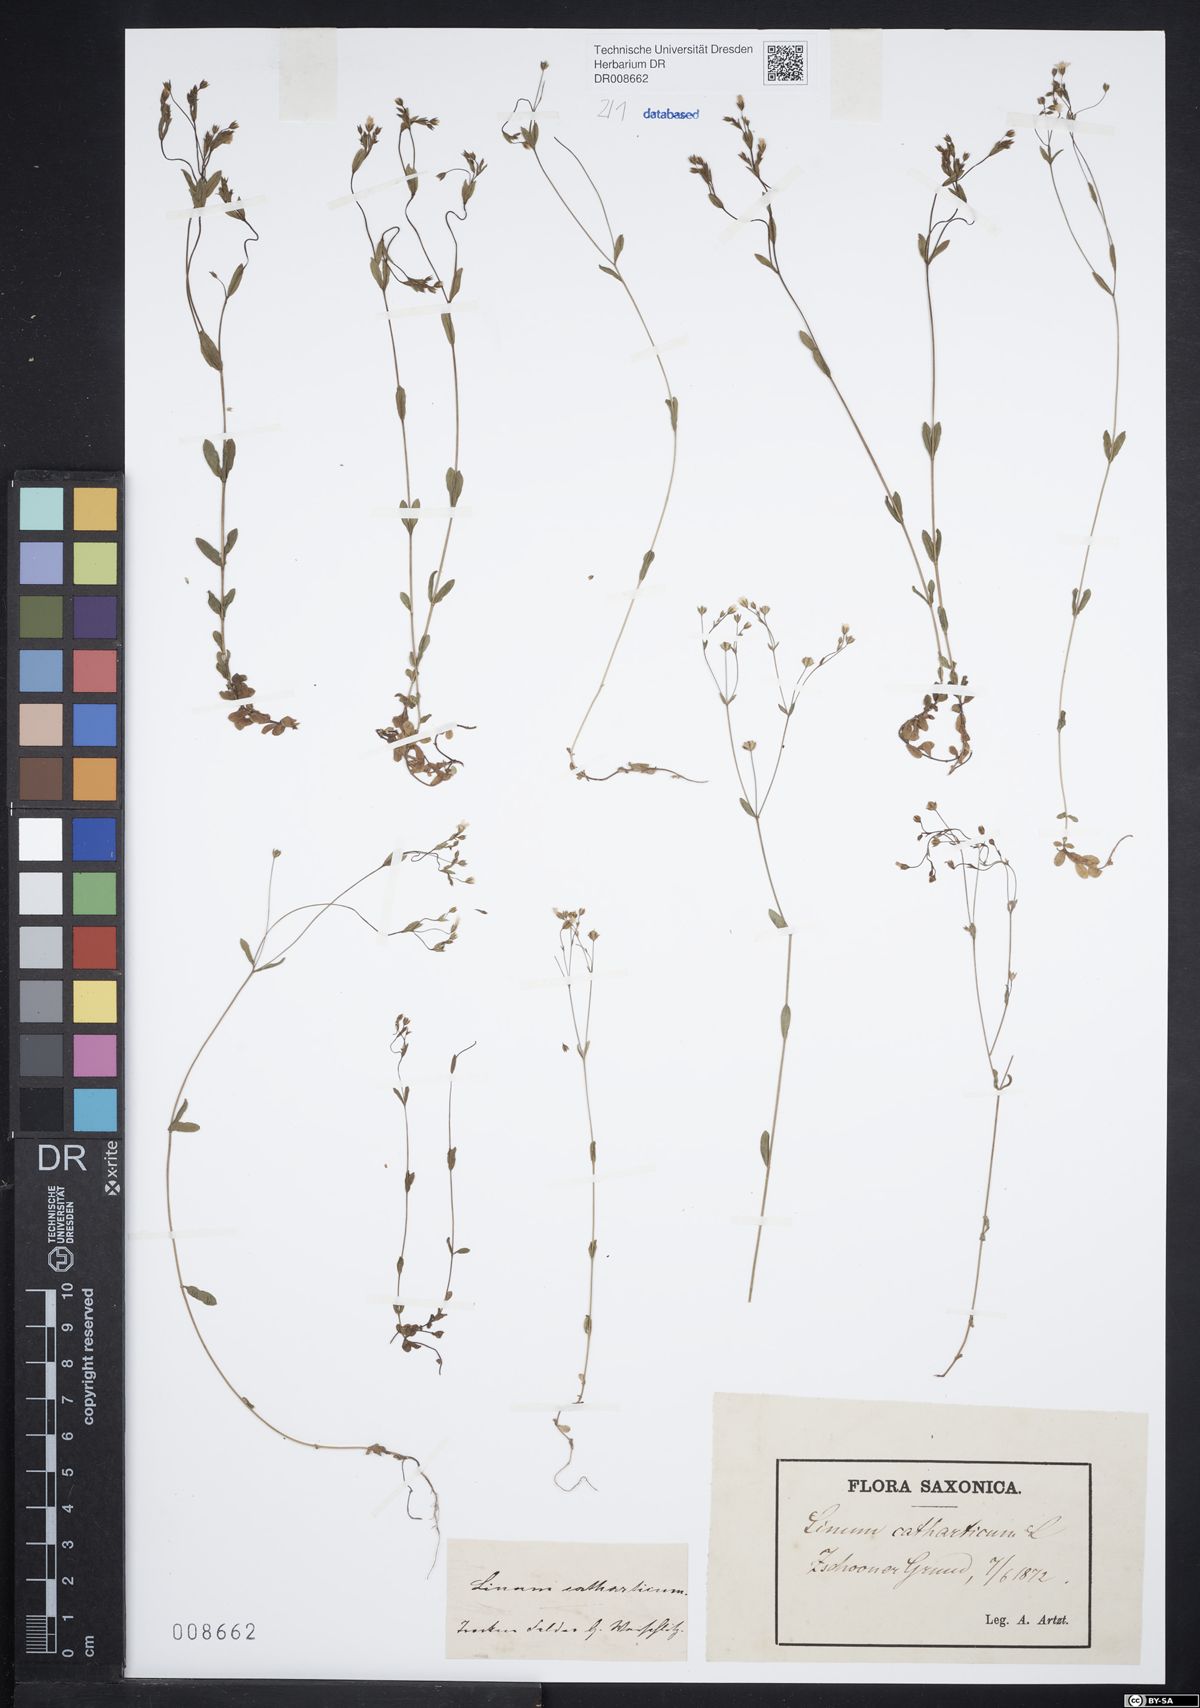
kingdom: Plantae
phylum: Tracheophyta
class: Magnoliopsida
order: Malpighiales
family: Linaceae
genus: Linum
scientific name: Linum catharticum
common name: Fairy flax
